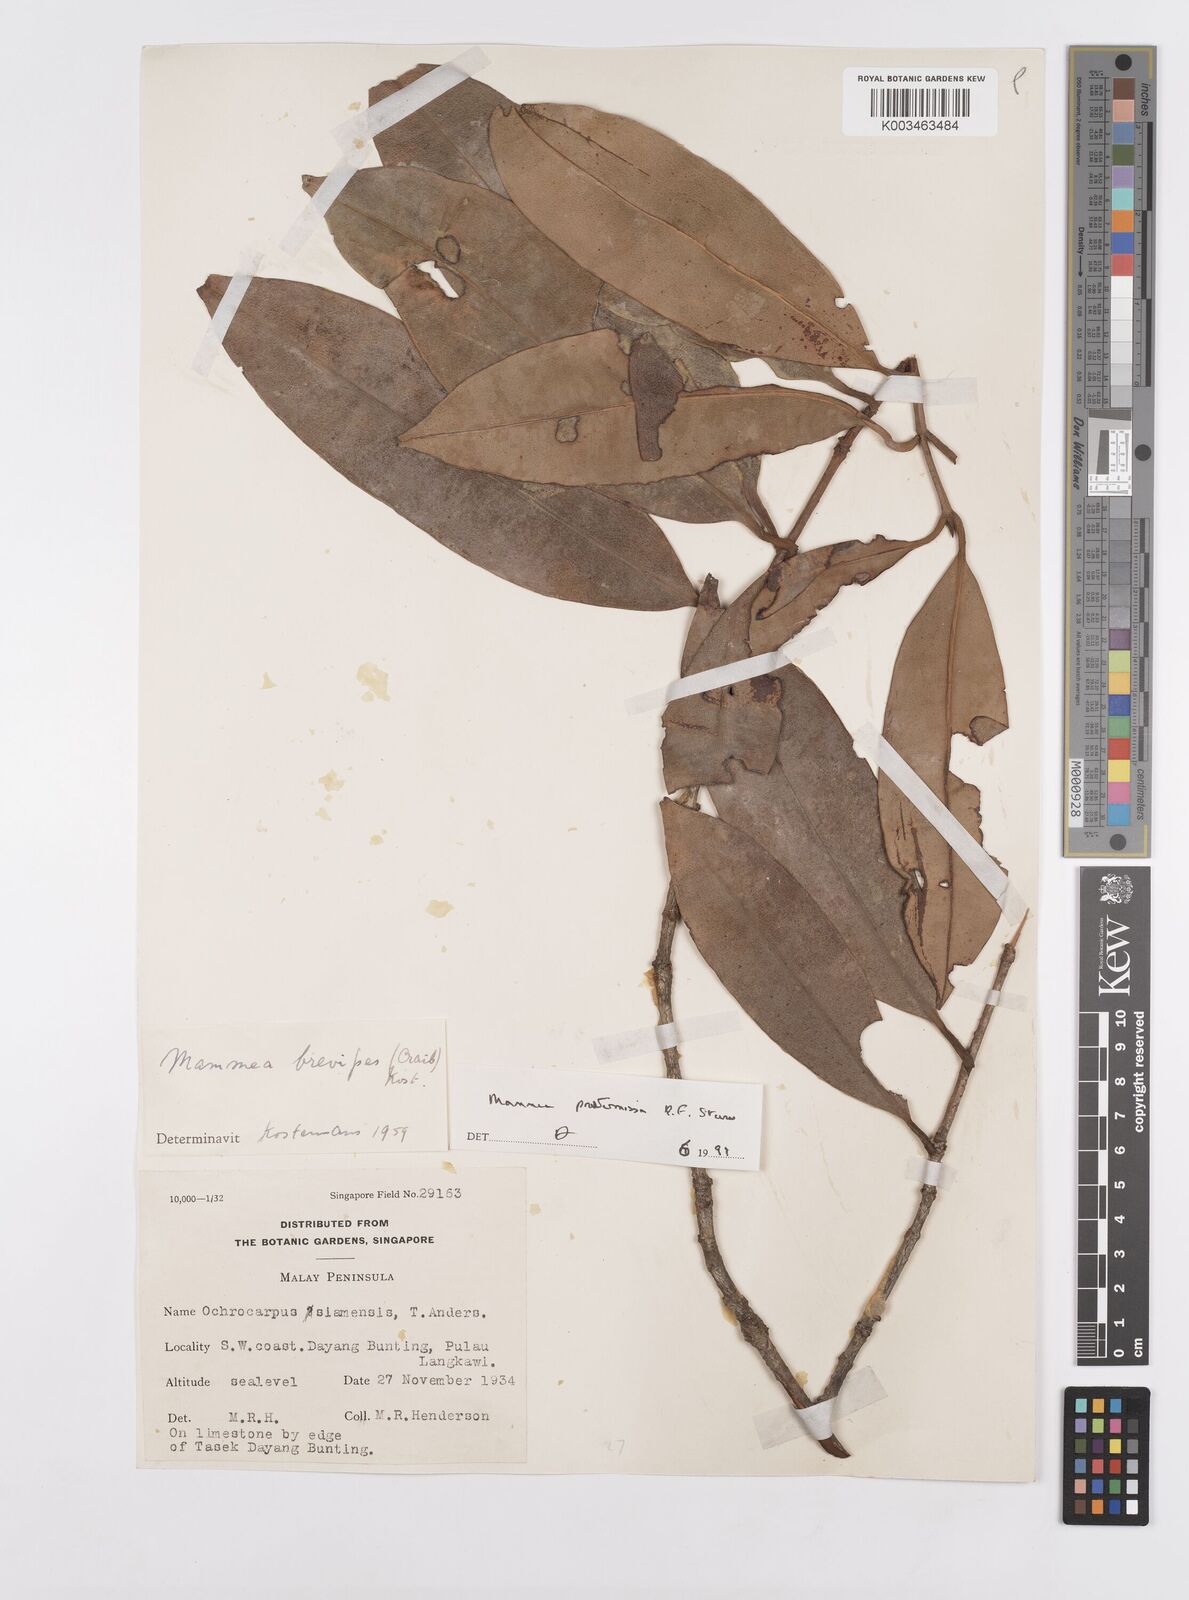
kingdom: Plantae
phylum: Tracheophyta
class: Magnoliopsida
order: Malpighiales
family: Calophyllaceae
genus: Mammea
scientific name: Mammea harmandii
